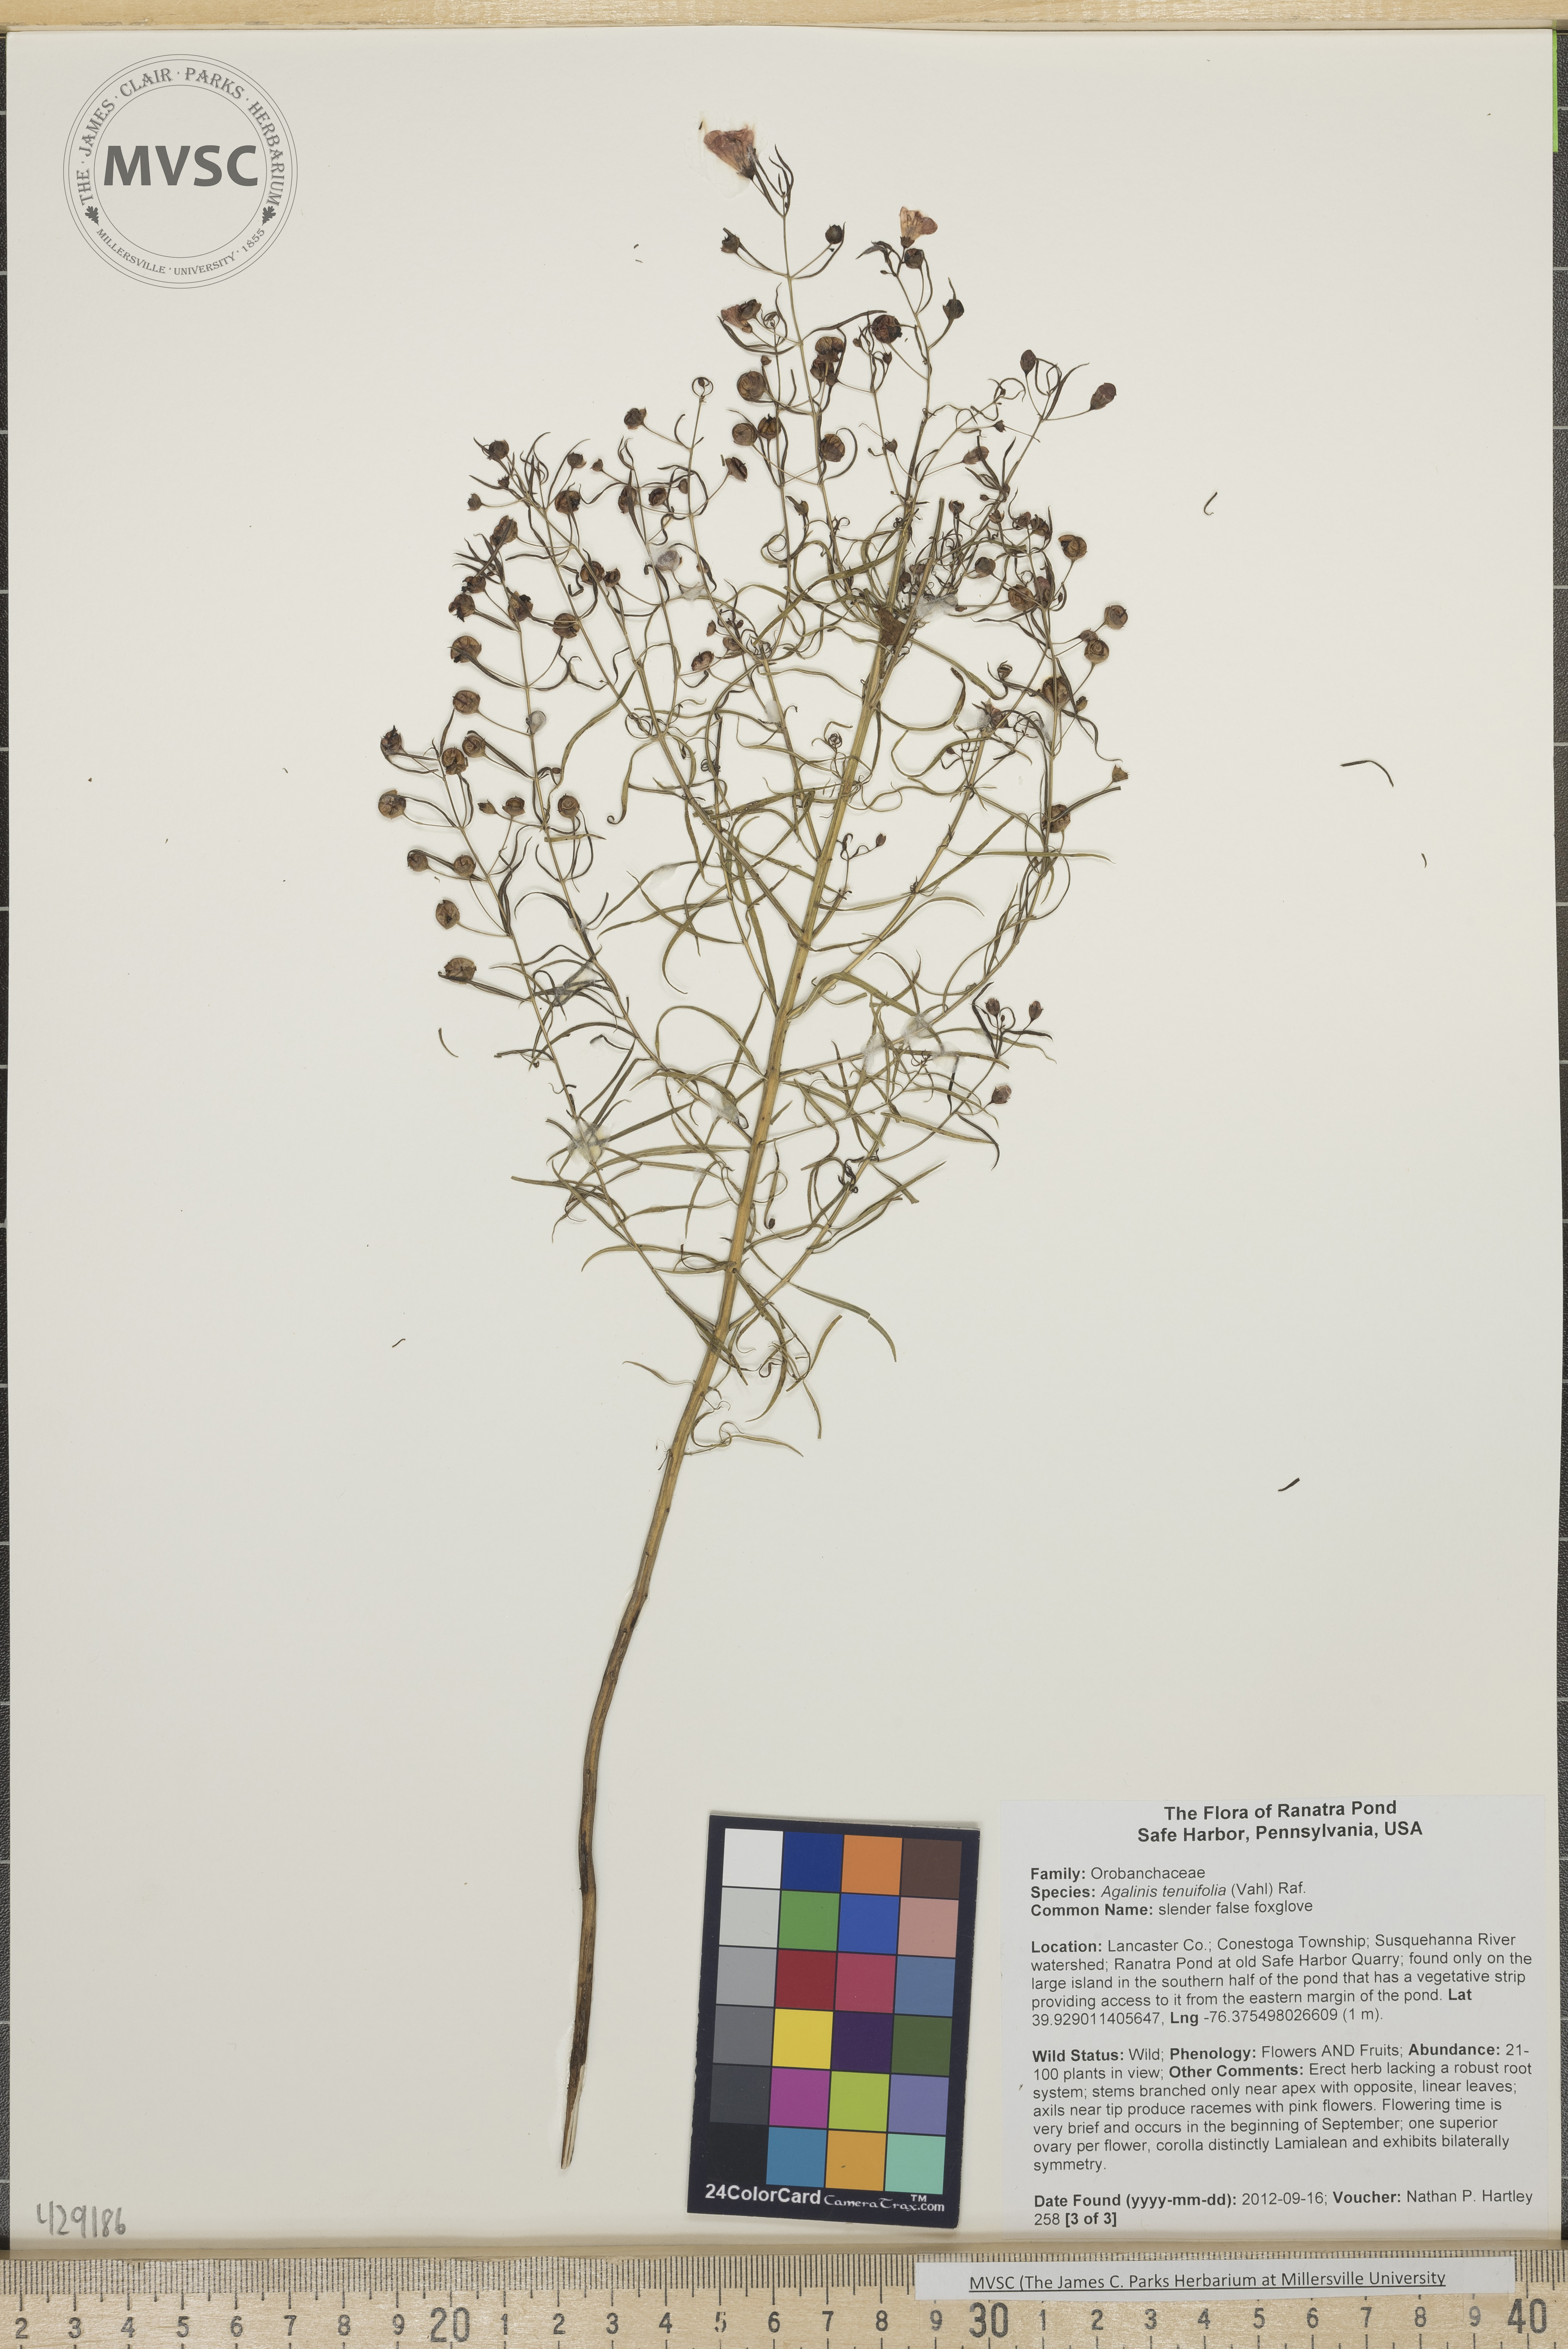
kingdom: Plantae
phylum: Tracheophyta
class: Magnoliopsida
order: Lamiales
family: Orobanchaceae
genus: Agalinis
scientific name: Agalinis tenuifolia
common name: Slender false foxglove
